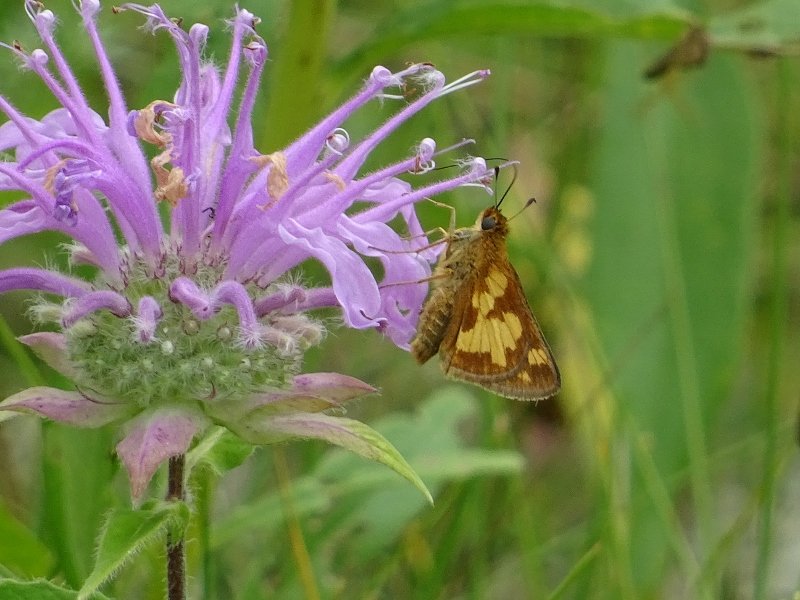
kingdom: Animalia
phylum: Arthropoda
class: Insecta
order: Lepidoptera
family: Hesperiidae
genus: Polites
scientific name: Polites coras
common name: Peck's Skipper
